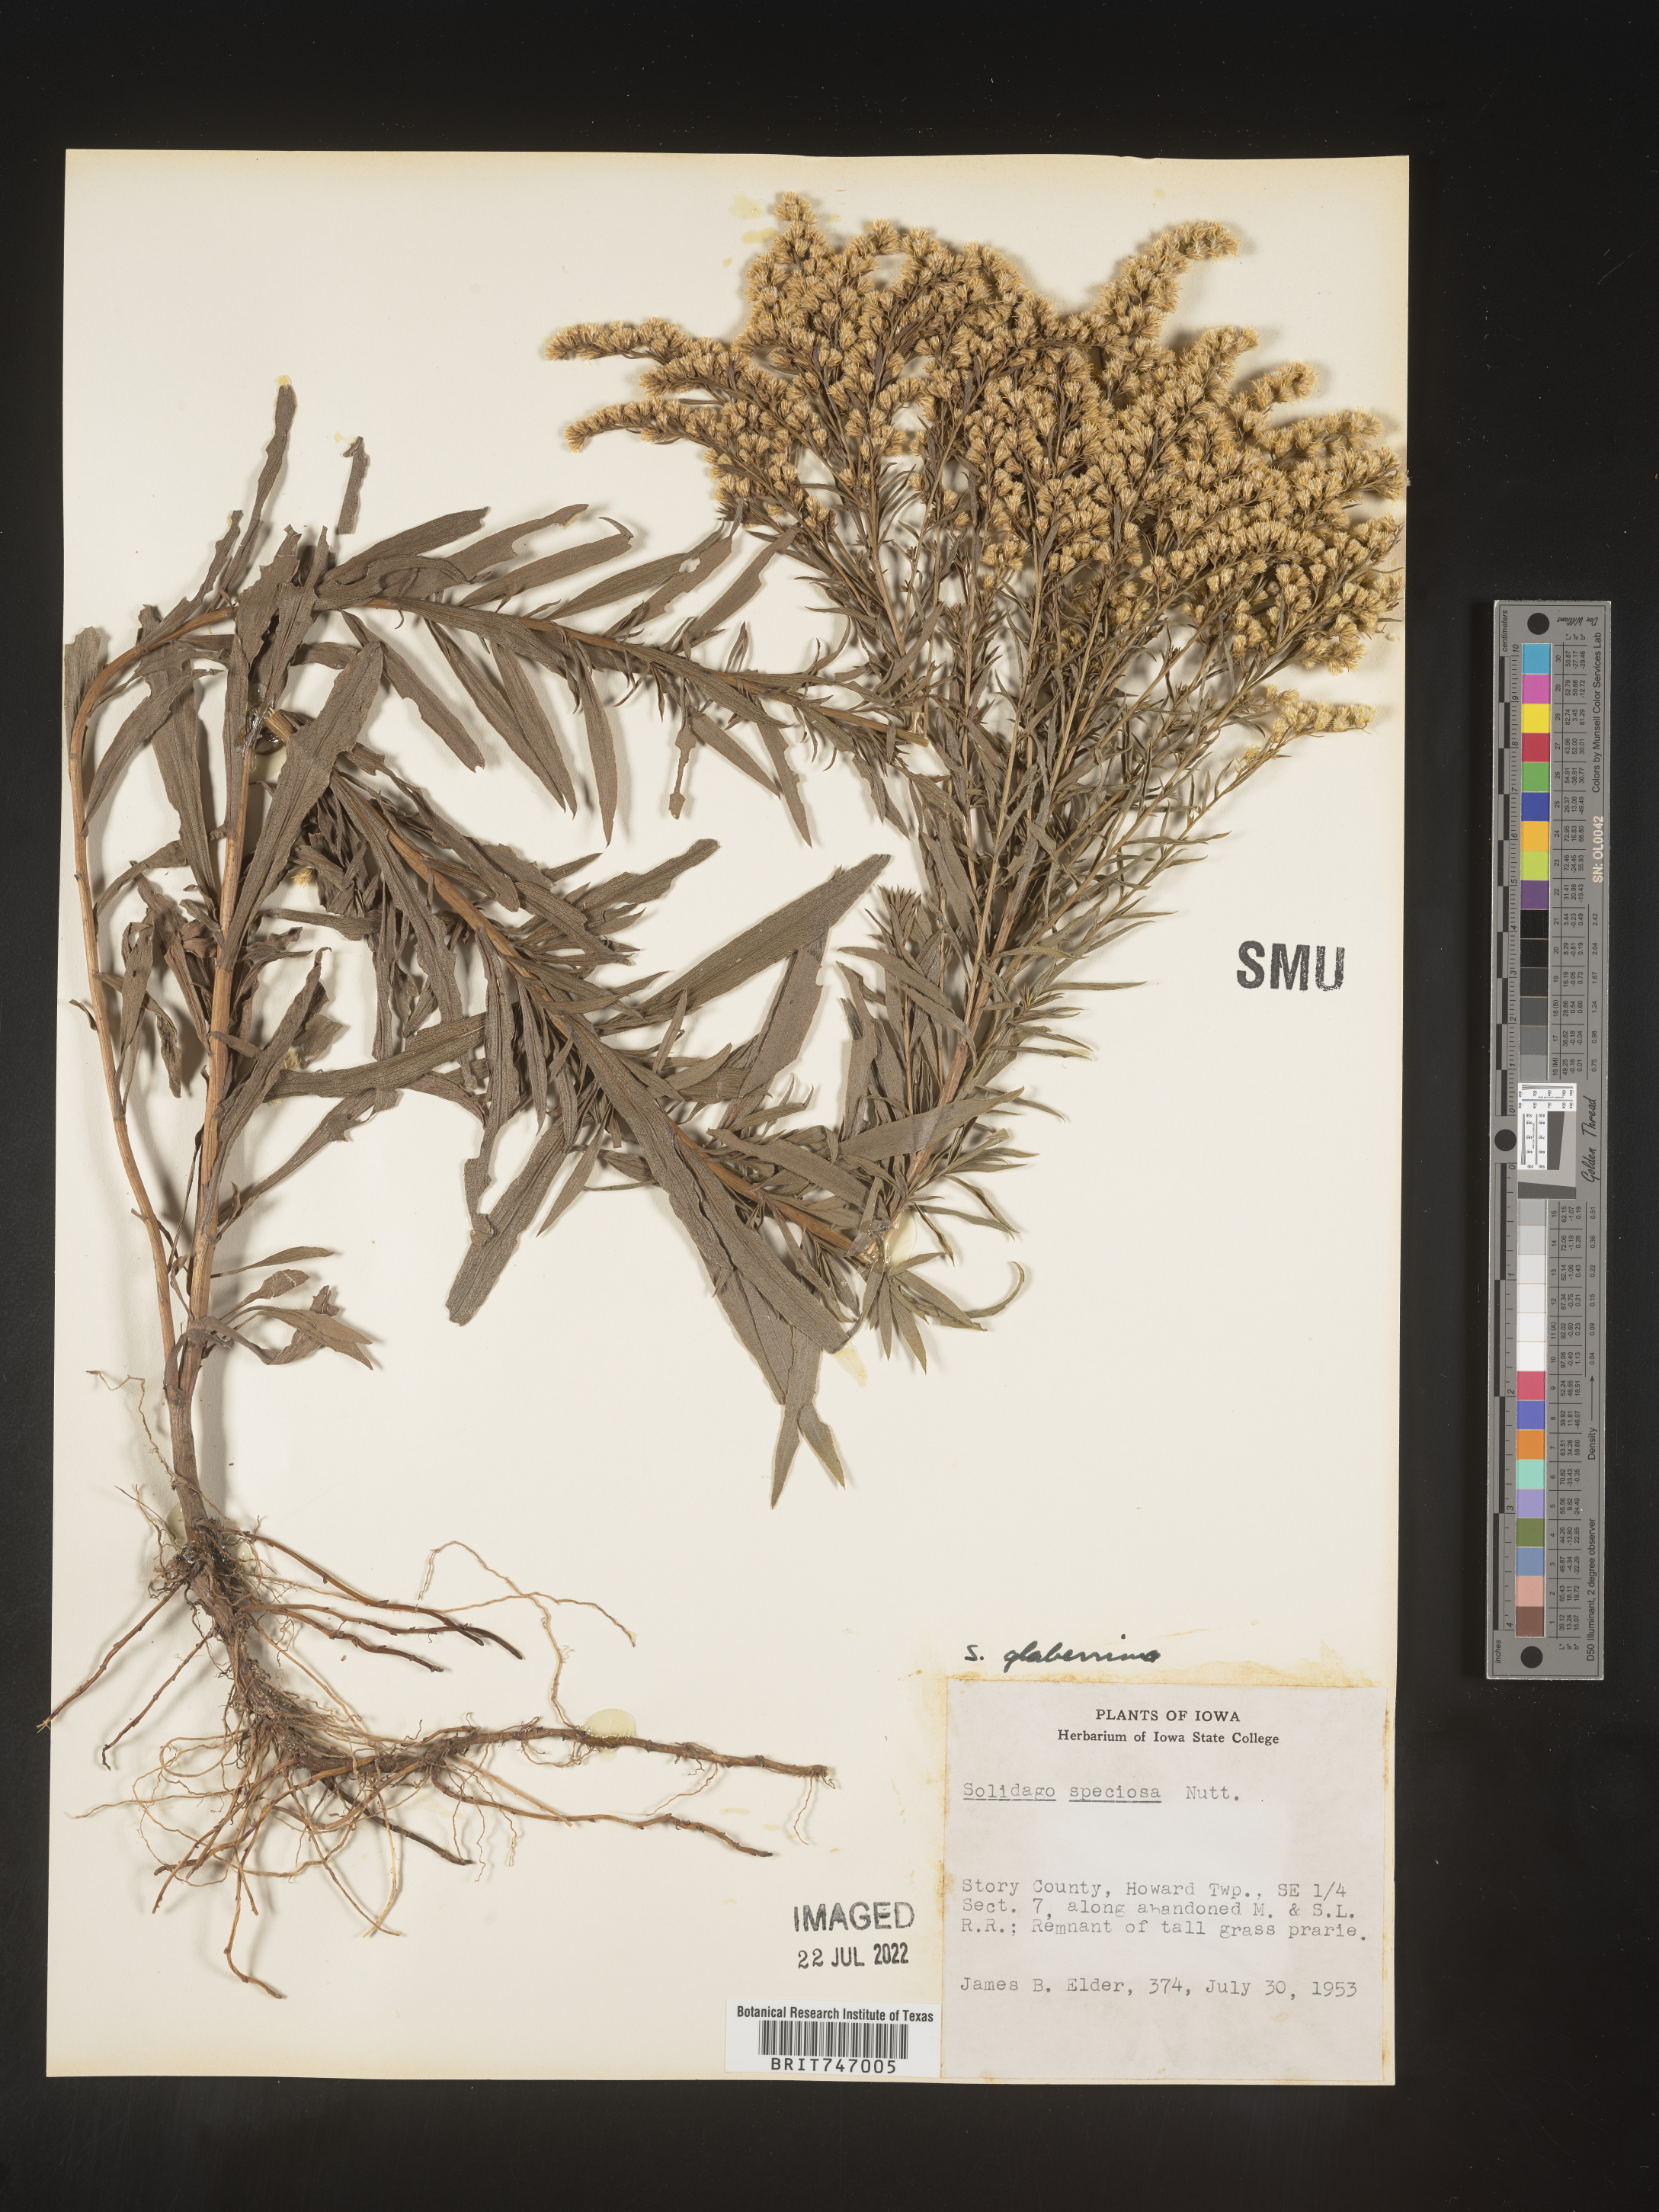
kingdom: Plantae
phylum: Tracheophyta
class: Magnoliopsida
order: Asterales
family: Asteraceae
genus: Solidago
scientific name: Solidago missouriensis
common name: Prairie goldenrod
